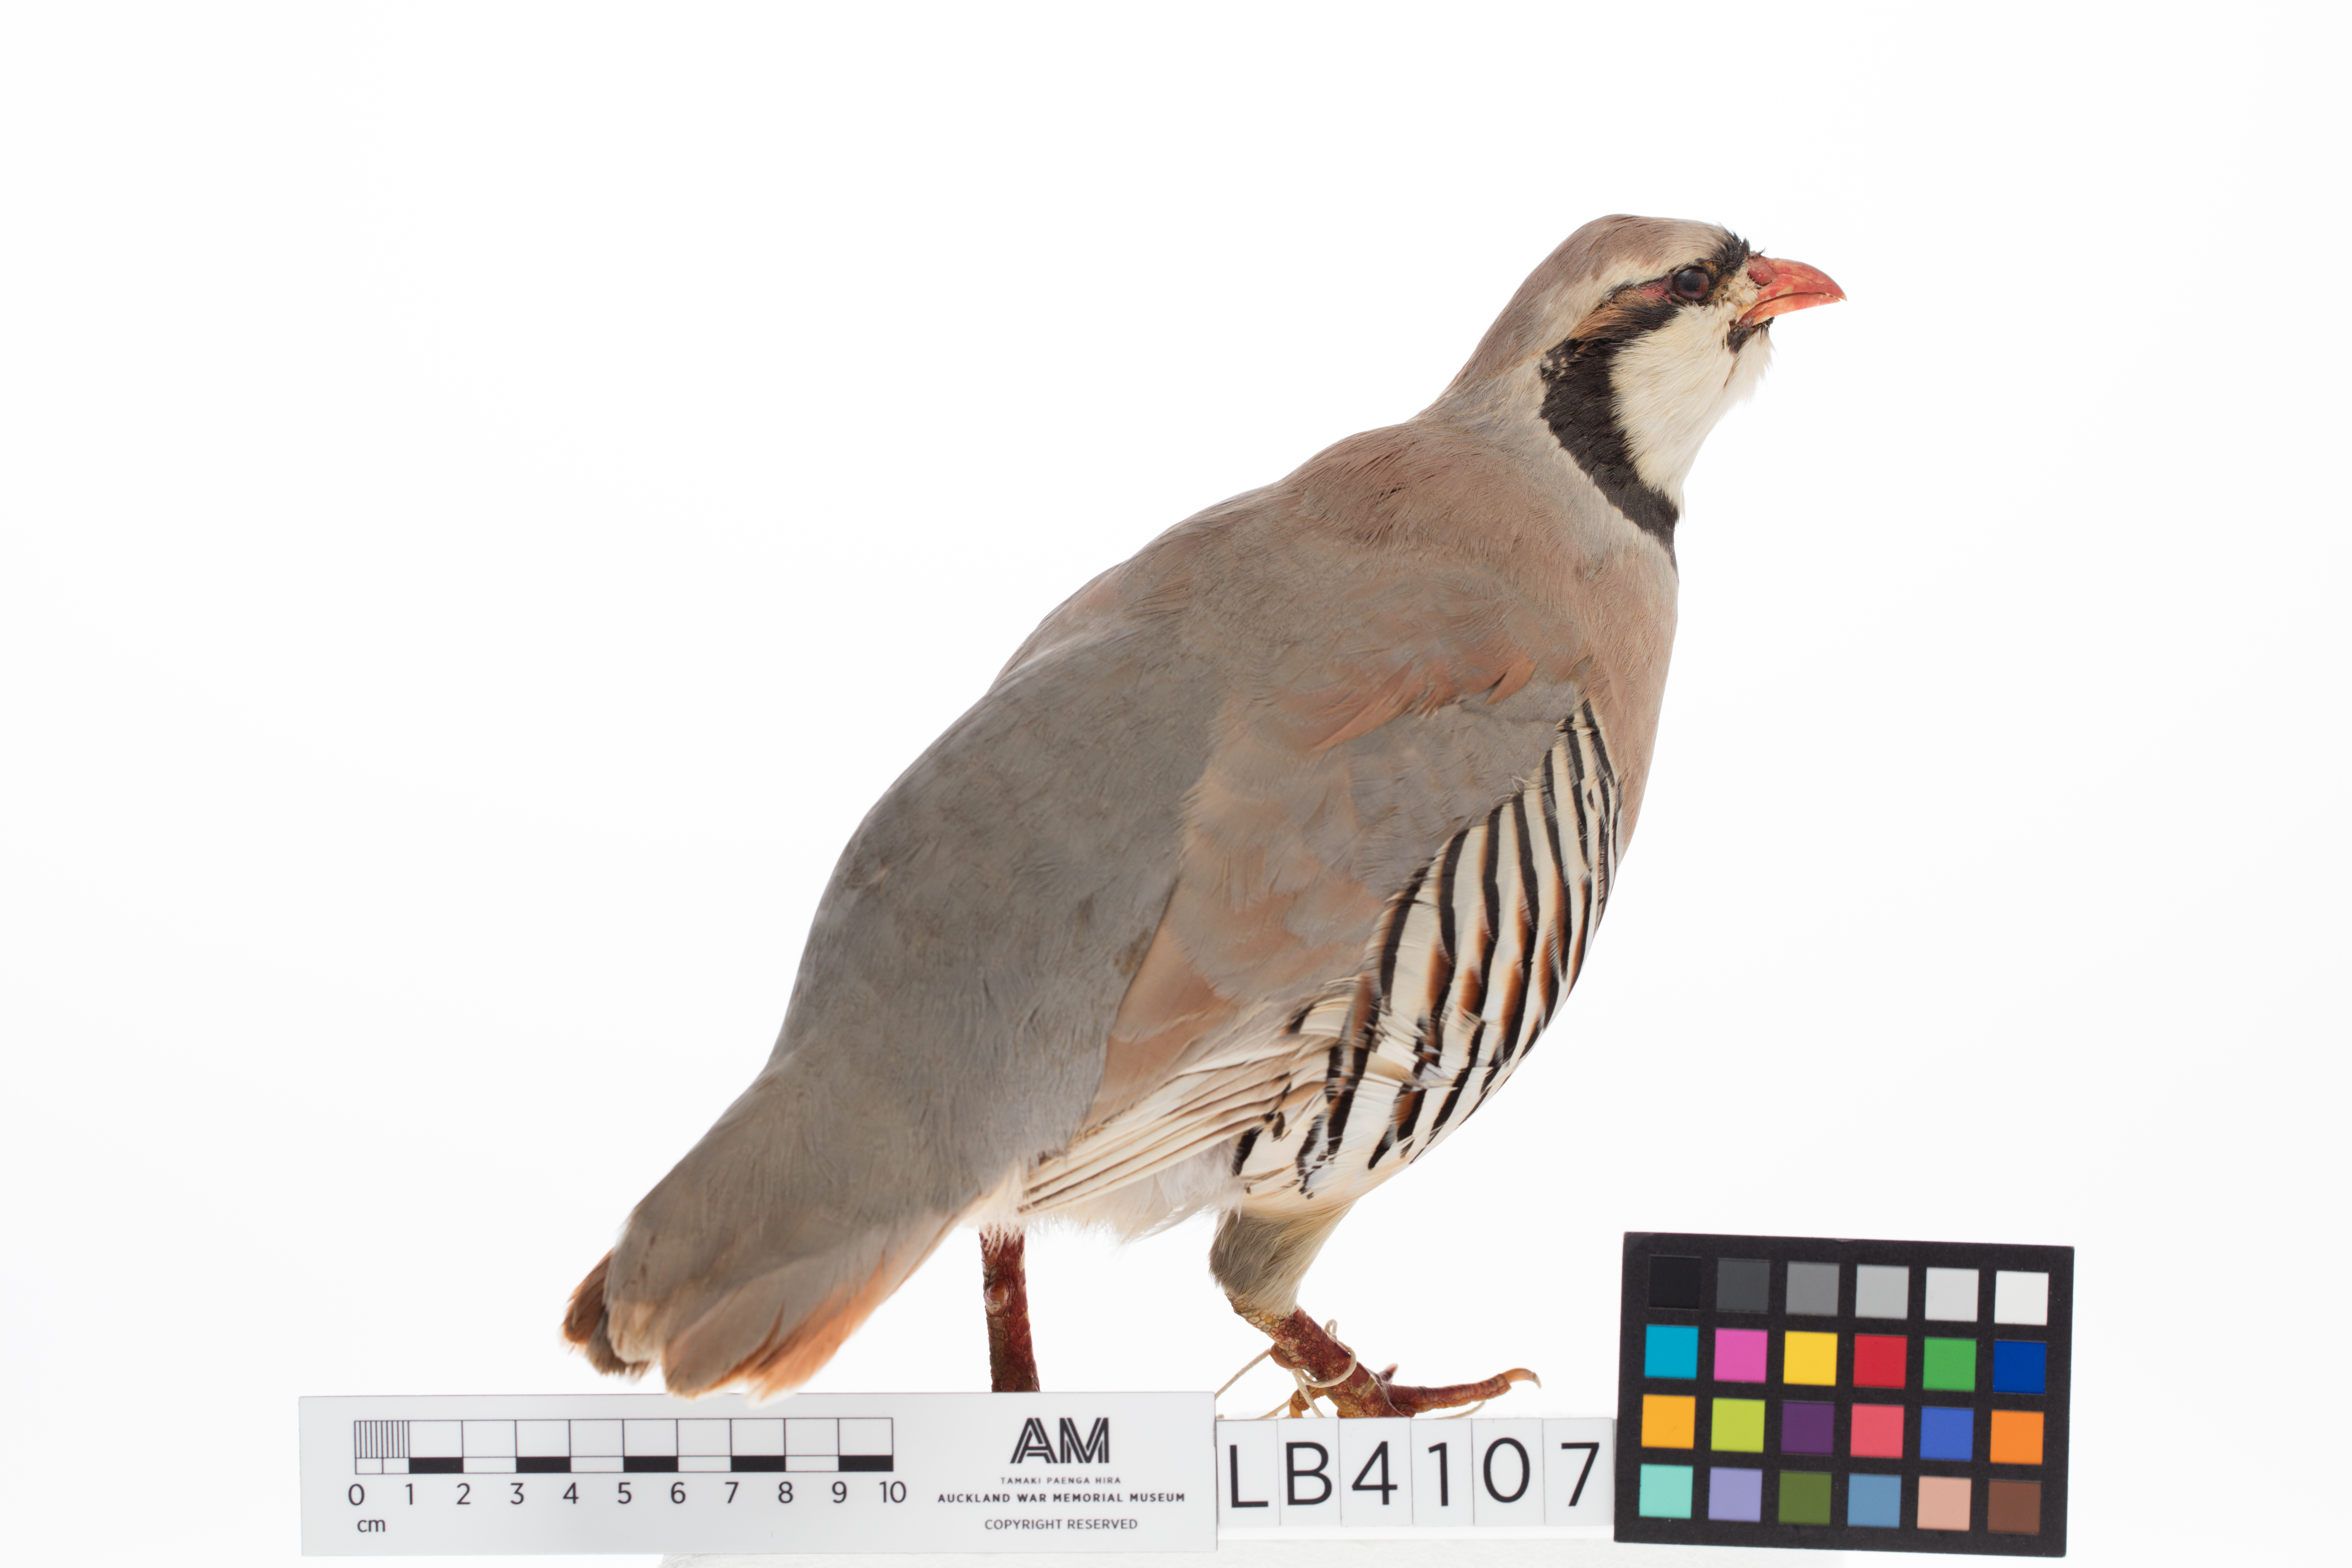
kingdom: Animalia
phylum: Chordata
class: Aves
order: Galliformes
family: Phasianidae
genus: Alectoris
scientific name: Alectoris chukar
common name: Chukar
